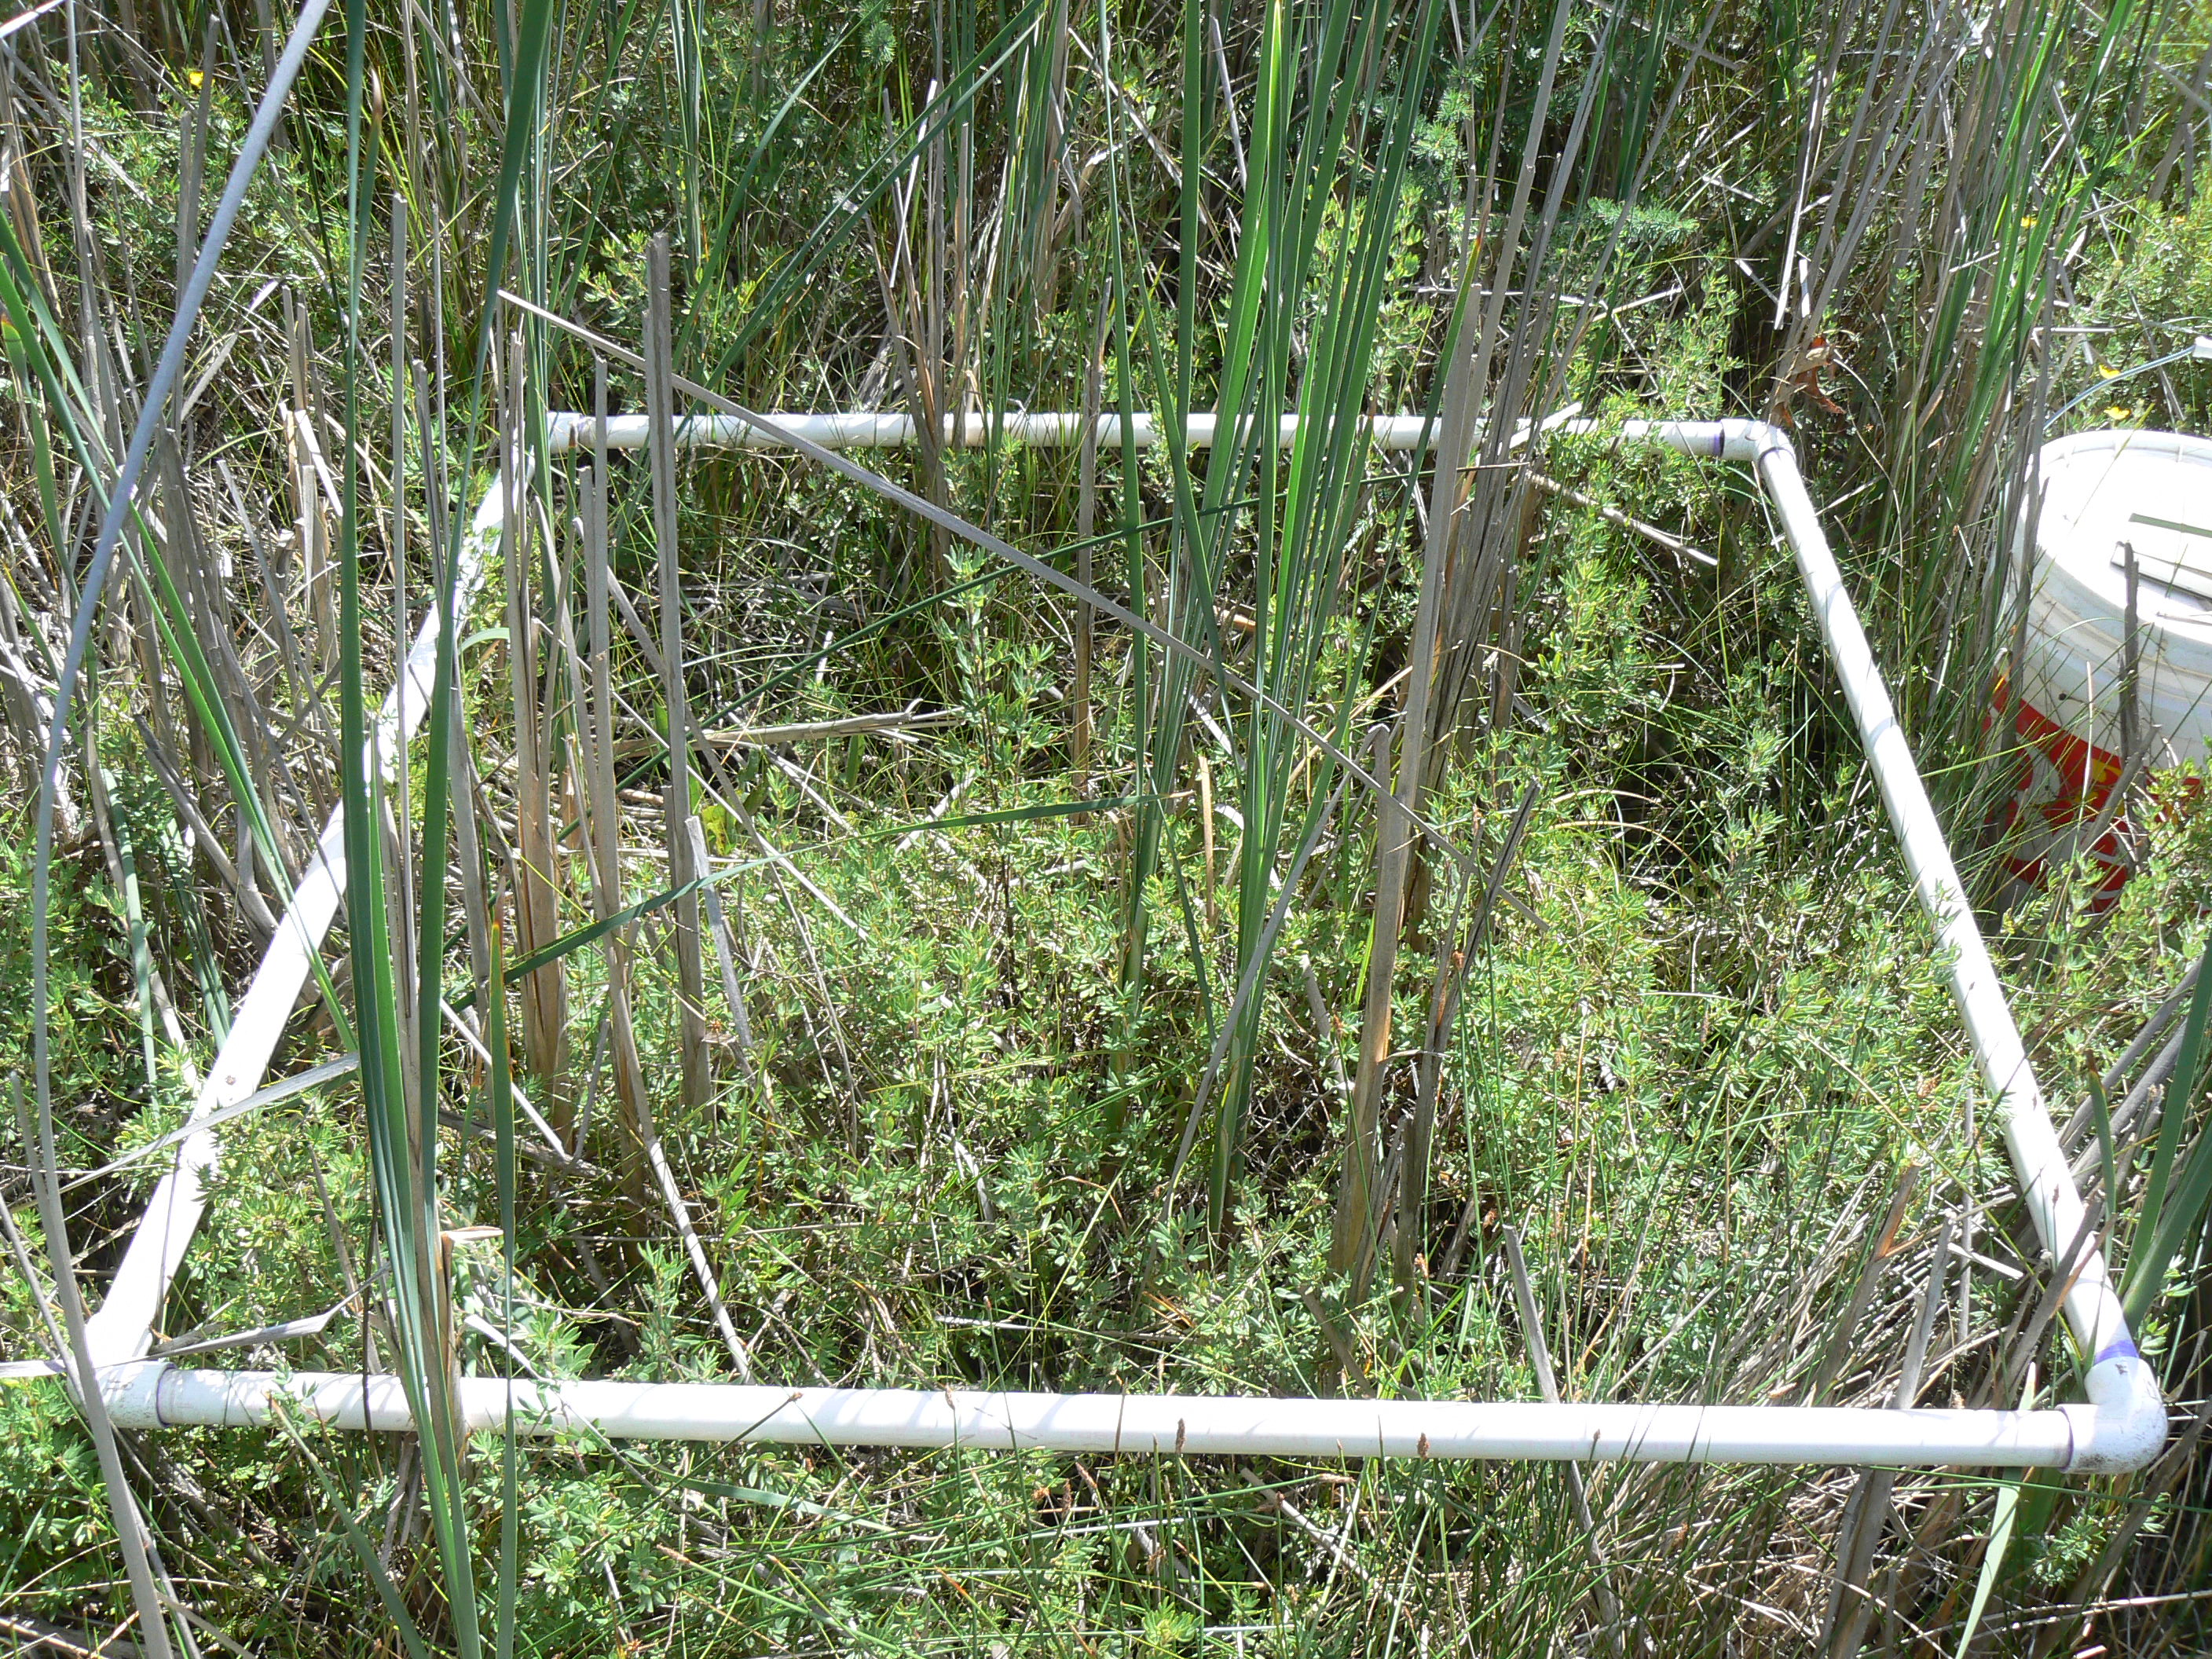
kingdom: Plantae
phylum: Tracheophyta
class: Liliopsida
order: Poales
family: Cyperaceae
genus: Carex
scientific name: Carex flava
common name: Large yellow-sedge
